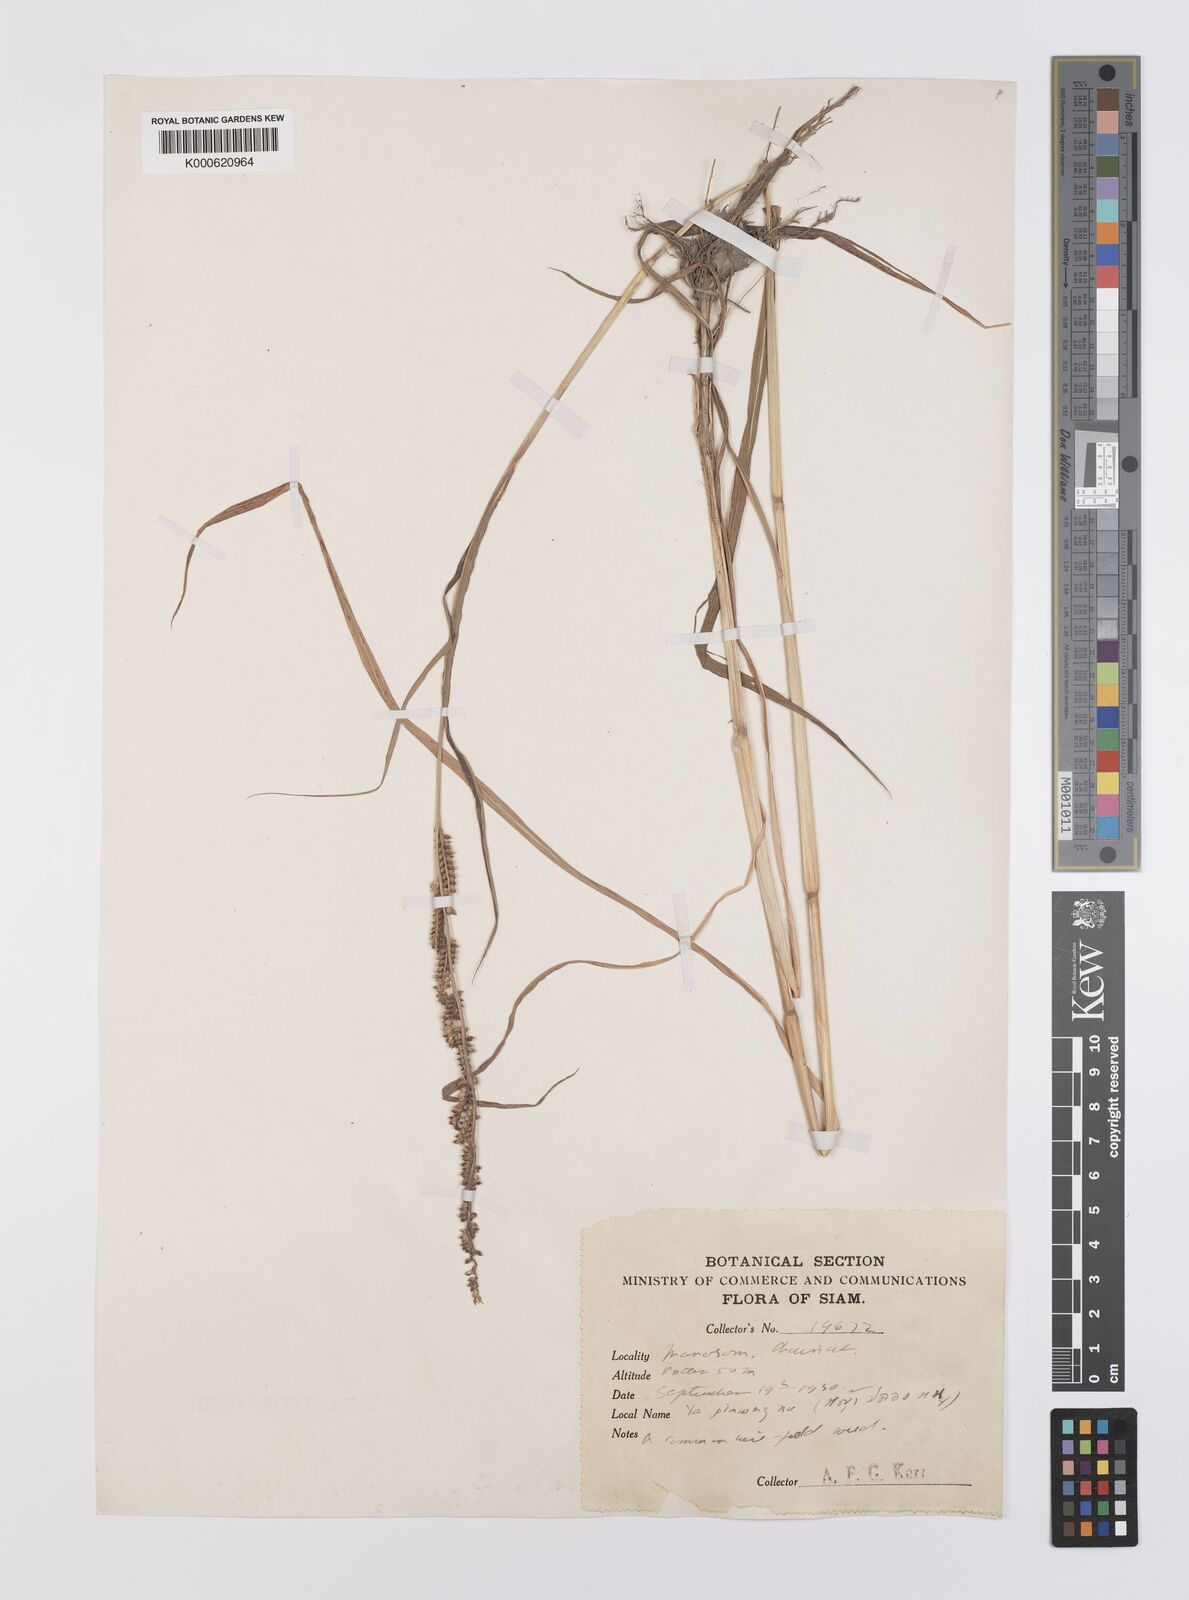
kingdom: Plantae
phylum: Tracheophyta
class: Liliopsida
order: Poales
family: Poaceae
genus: Echinochloa
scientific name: Echinochloa colonum
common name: Jungle rice
